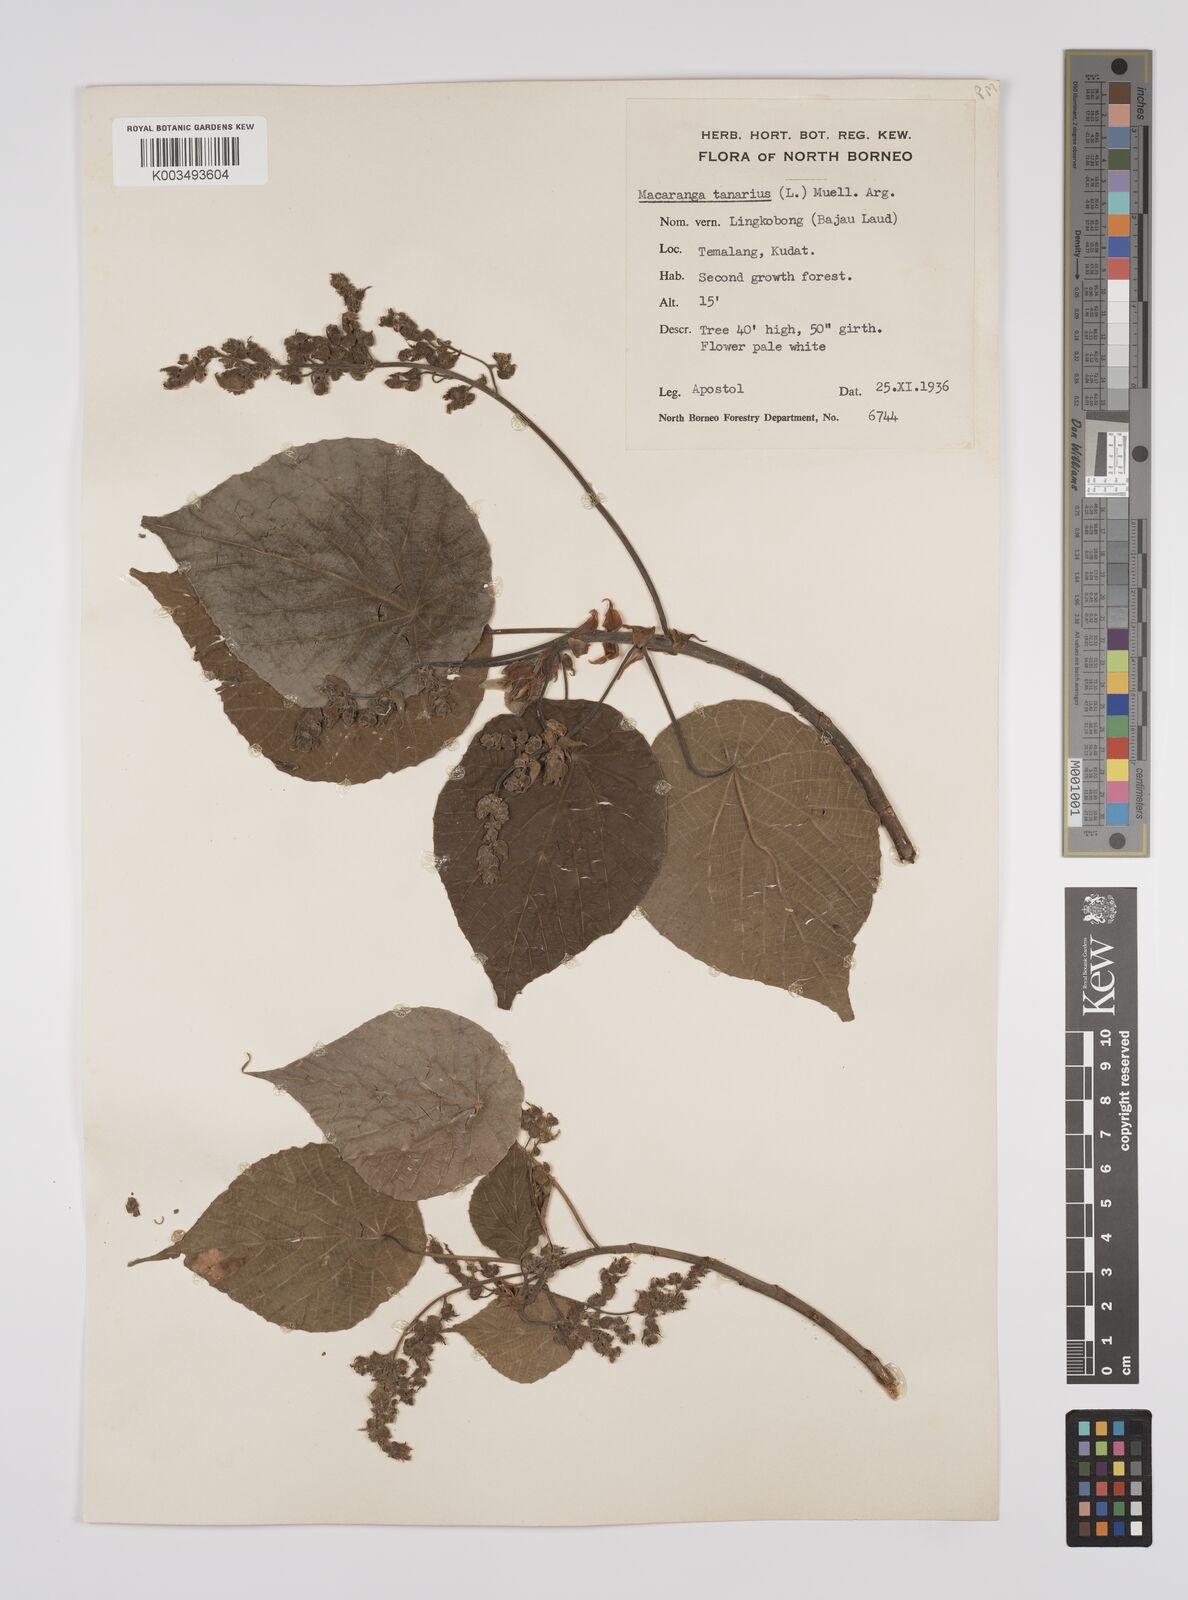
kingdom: Plantae
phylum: Tracheophyta
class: Magnoliopsida
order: Malpighiales
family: Euphorbiaceae
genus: Macaranga
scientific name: Macaranga tanarius
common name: Parasol leaf tree
